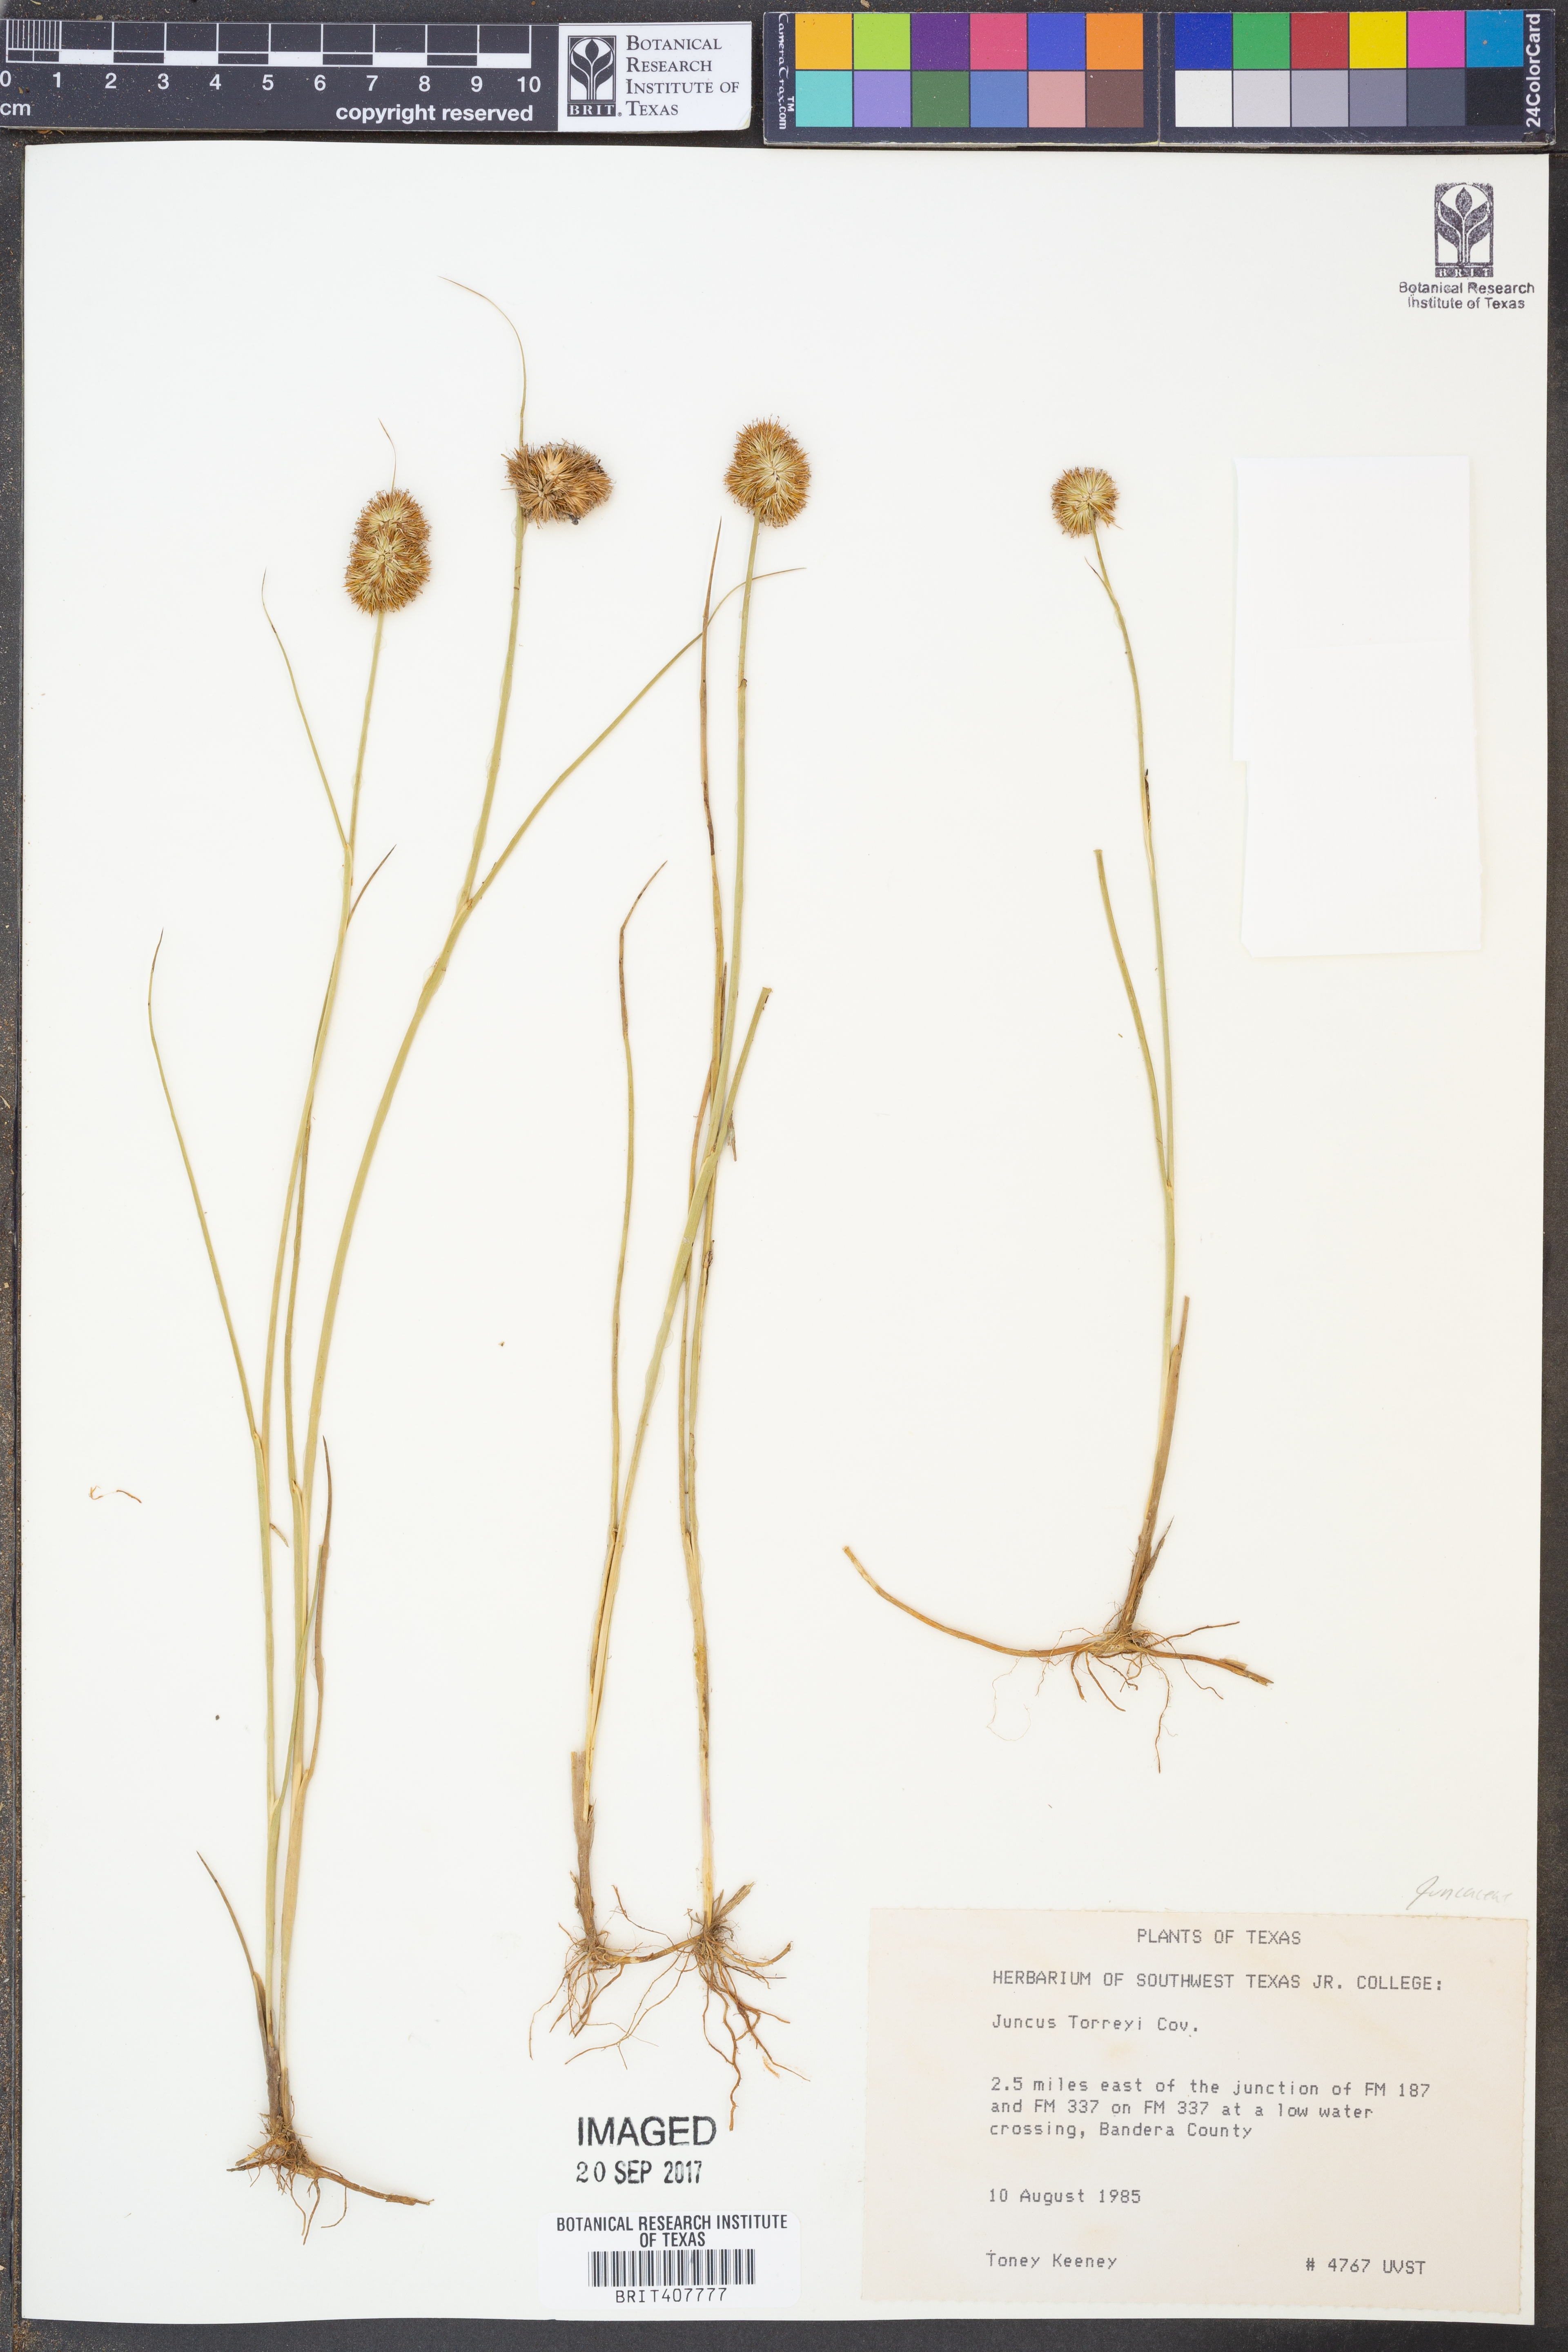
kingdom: Plantae
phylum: Tracheophyta
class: Liliopsida
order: Poales
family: Juncaceae
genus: Juncus
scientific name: Juncus torreyi
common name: Torrey's rush
